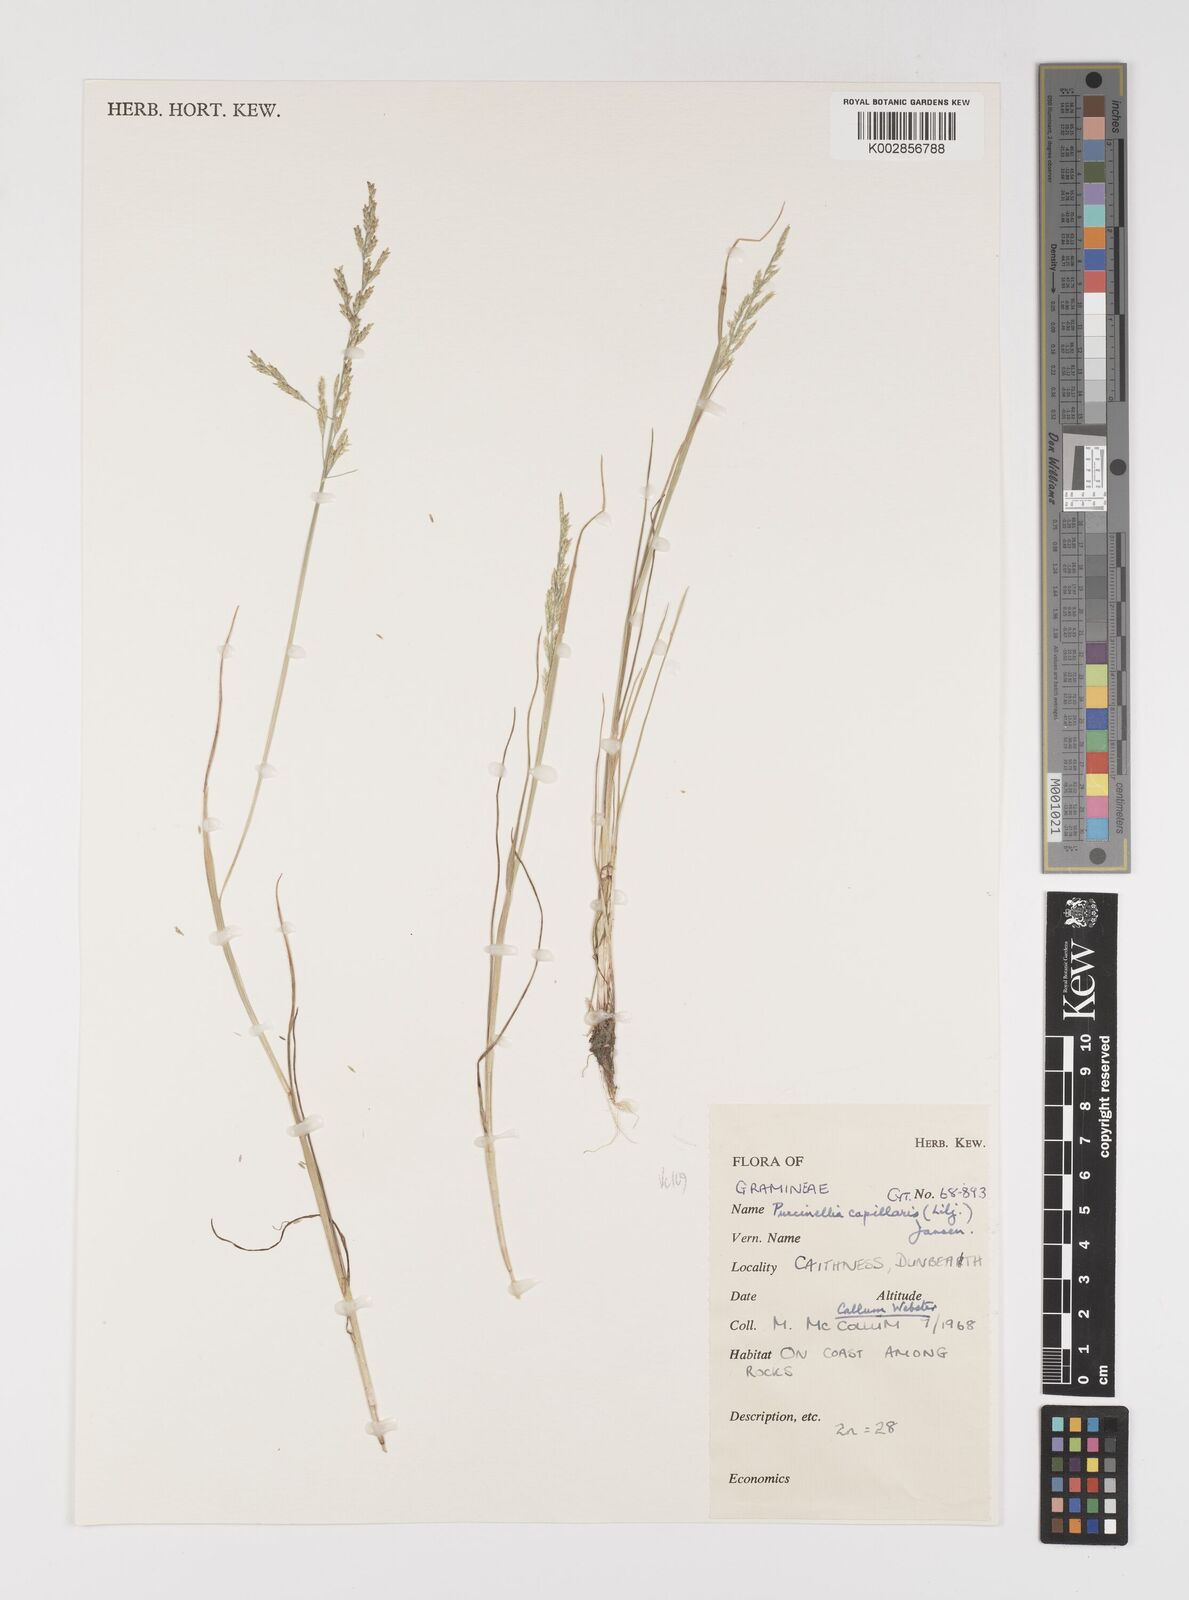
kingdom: Plantae
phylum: Tracheophyta
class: Liliopsida
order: Poales
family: Poaceae
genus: Puccinellia
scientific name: Puccinellia distans
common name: Weeping alkaligrass
